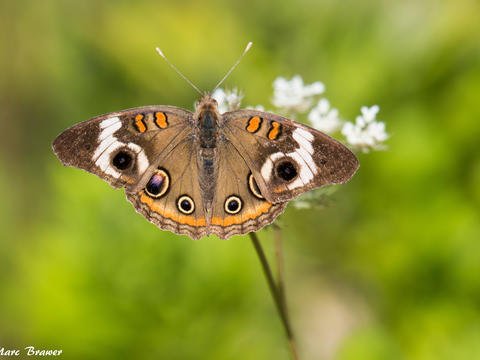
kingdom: Animalia
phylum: Arthropoda
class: Insecta
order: Lepidoptera
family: Nymphalidae
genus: Junonia
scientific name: Junonia coenia
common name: Common Buckeye
